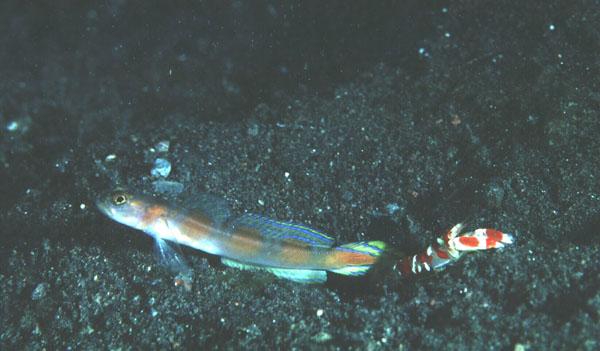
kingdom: Animalia
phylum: Chordata
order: Perciformes
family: Gobiidae
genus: Amblyeleotris
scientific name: Amblyeleotris yanoi
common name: Flag-tail shrimp-goby
